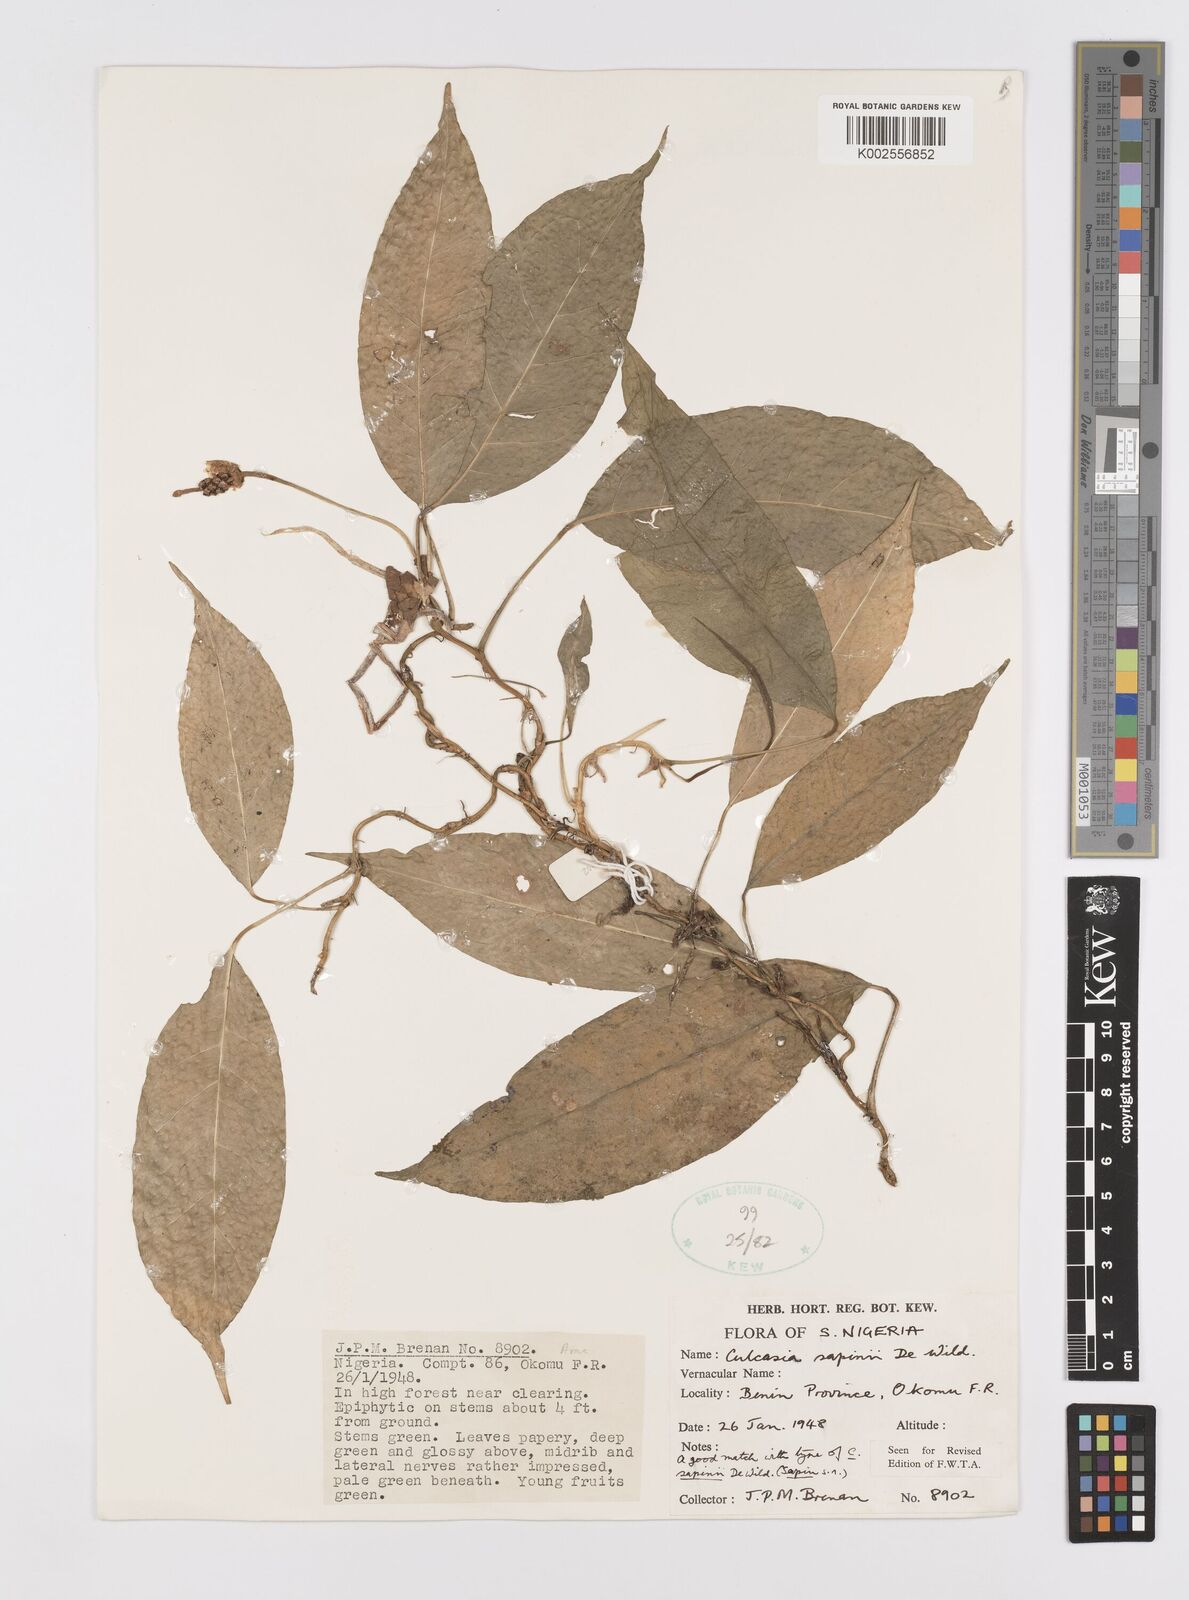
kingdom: Plantae
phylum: Tracheophyta
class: Liliopsida
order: Alismatales
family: Araceae
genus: Culcasia
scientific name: Culcasia seretii
